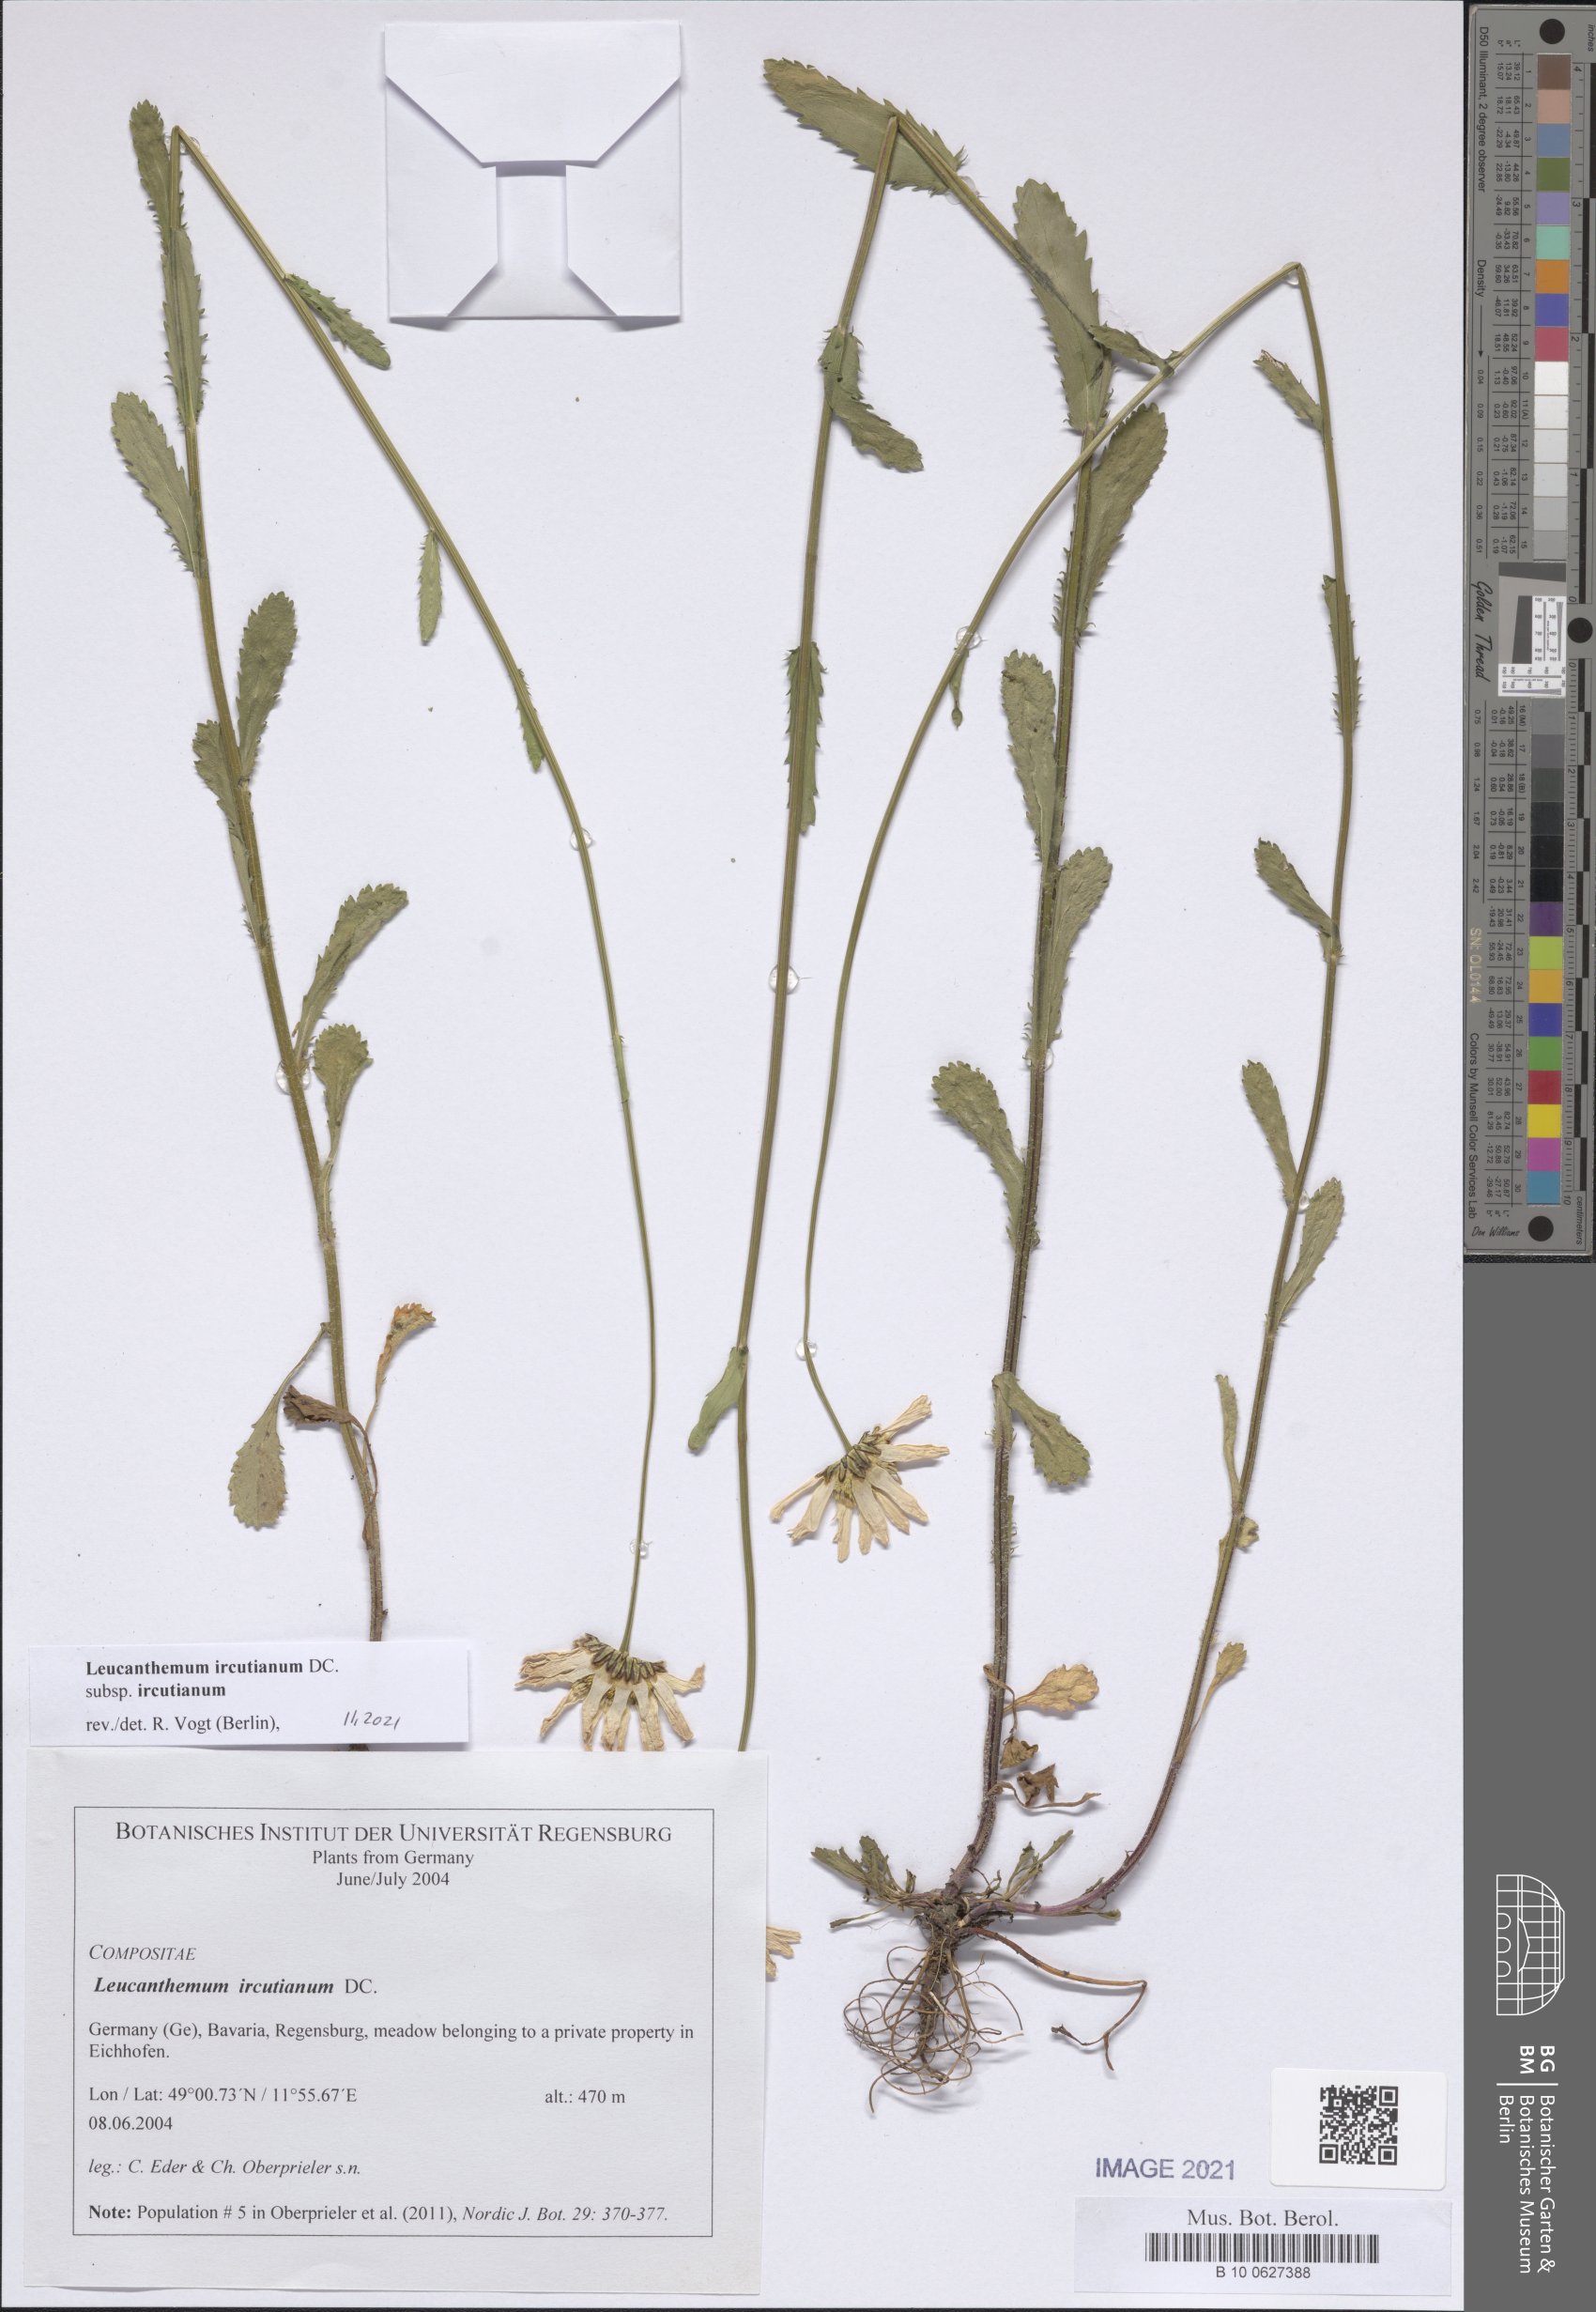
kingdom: Plantae
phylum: Tracheophyta
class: Magnoliopsida
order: Asterales
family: Asteraceae
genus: Leucanthemum
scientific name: Leucanthemum ircutianum
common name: Daisy
